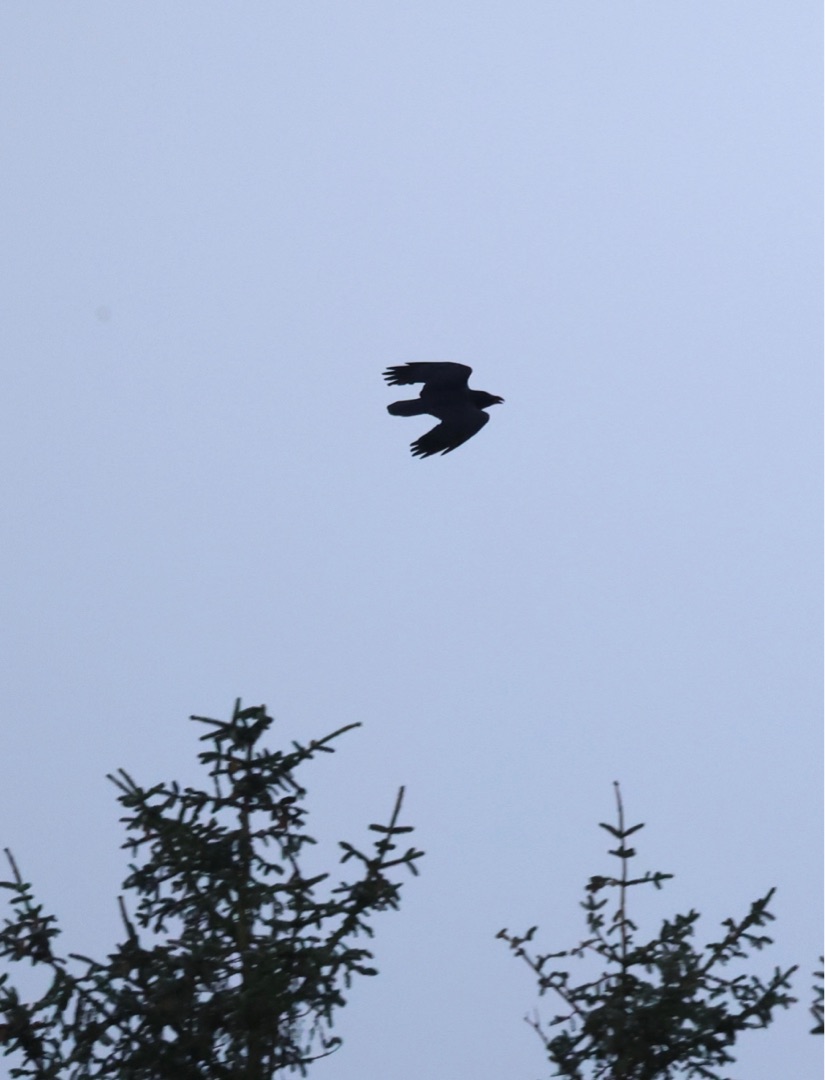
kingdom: Animalia
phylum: Chordata
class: Aves
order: Passeriformes
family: Corvidae
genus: Corvus
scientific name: Corvus corax
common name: Ravn
